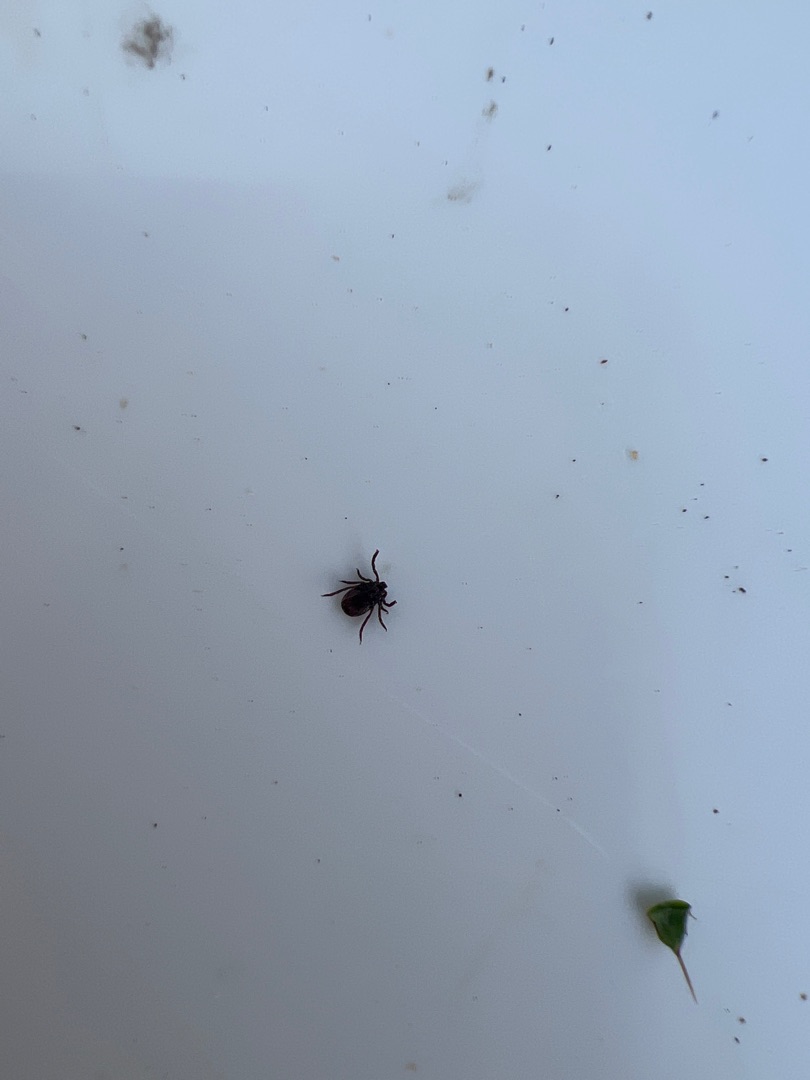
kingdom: Animalia
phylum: Arthropoda
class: Arachnida
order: Ixodida
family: Ixodidae
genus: Ixodes
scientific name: Ixodes ricinus
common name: Skovflåt
